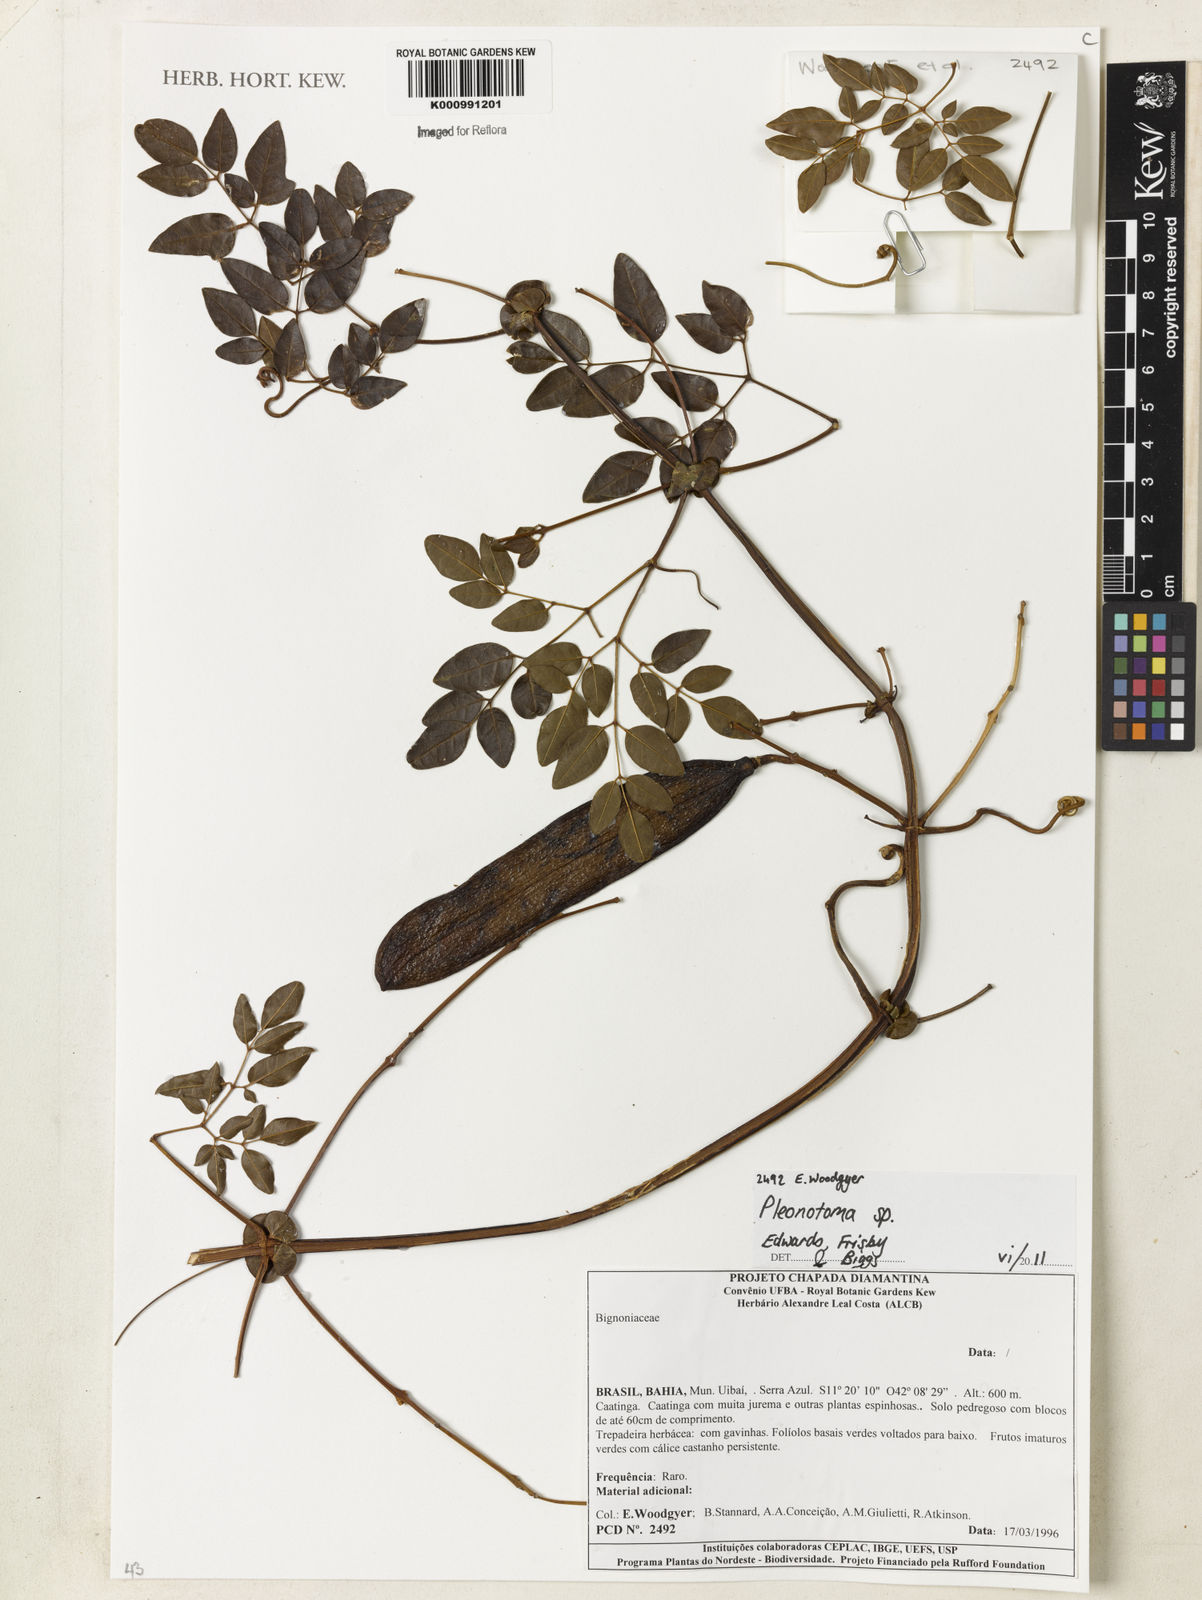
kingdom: Plantae
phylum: Tracheophyta
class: Magnoliopsida
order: Lamiales
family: Bignoniaceae
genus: Pleonotoma
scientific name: Pleonotoma
